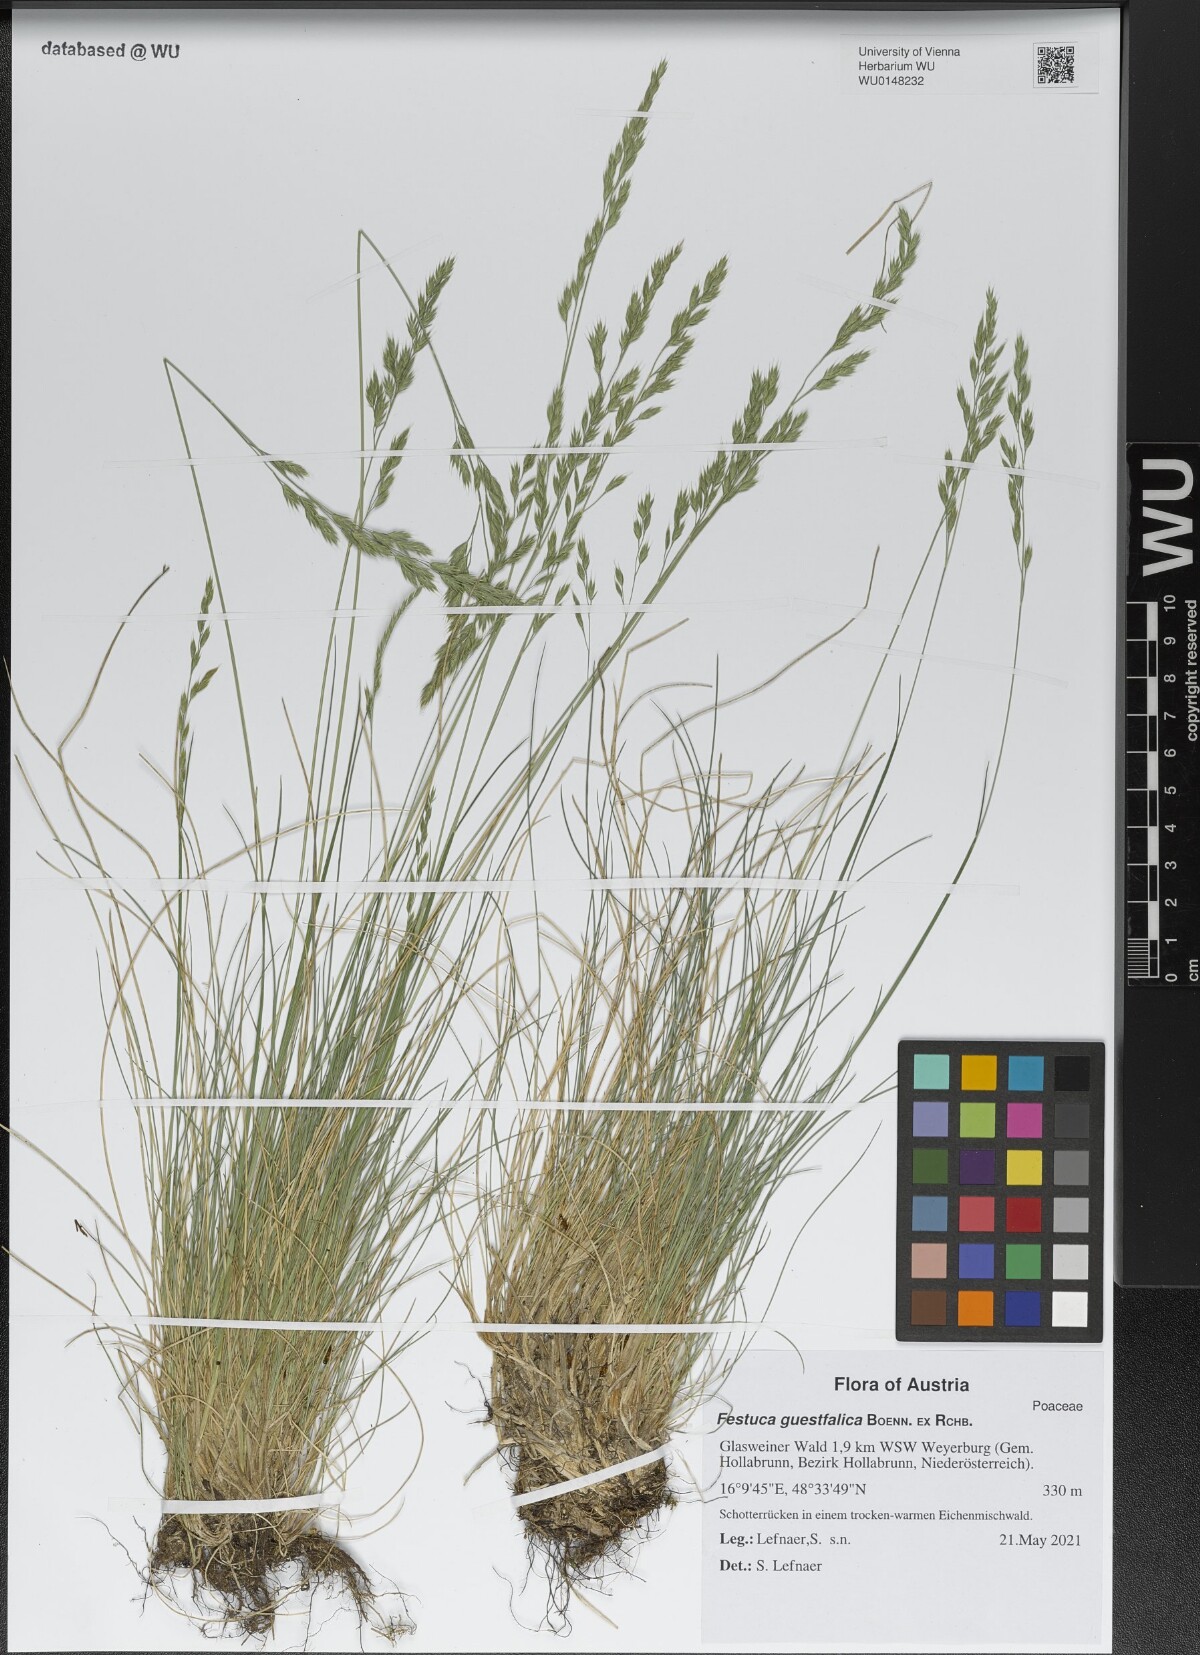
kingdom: Plantae
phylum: Tracheophyta
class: Liliopsida
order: Poales
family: Poaceae
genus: Festuca
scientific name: Festuca guestfalica
